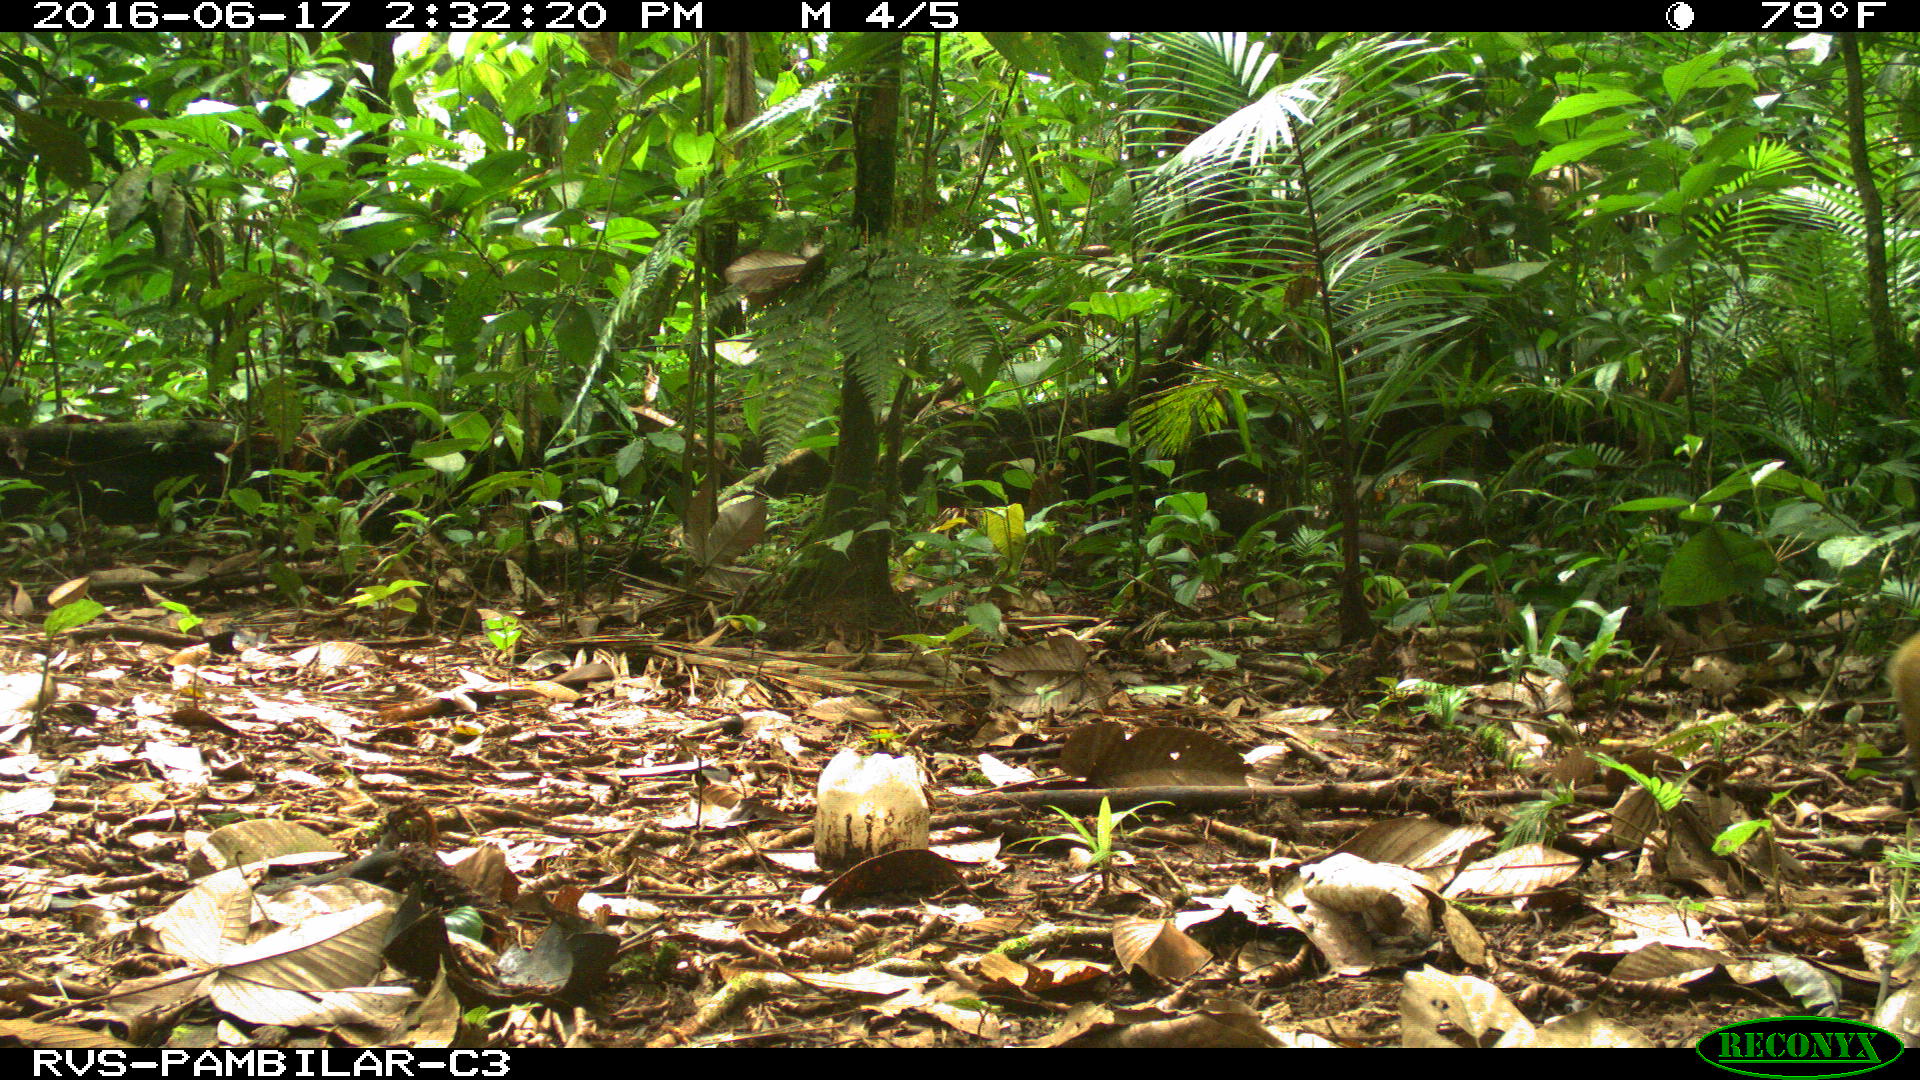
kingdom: Animalia
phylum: Chordata
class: Mammalia
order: Rodentia
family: Dasyproctidae
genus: Dasyprocta
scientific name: Dasyprocta punctata
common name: Central american agouti
